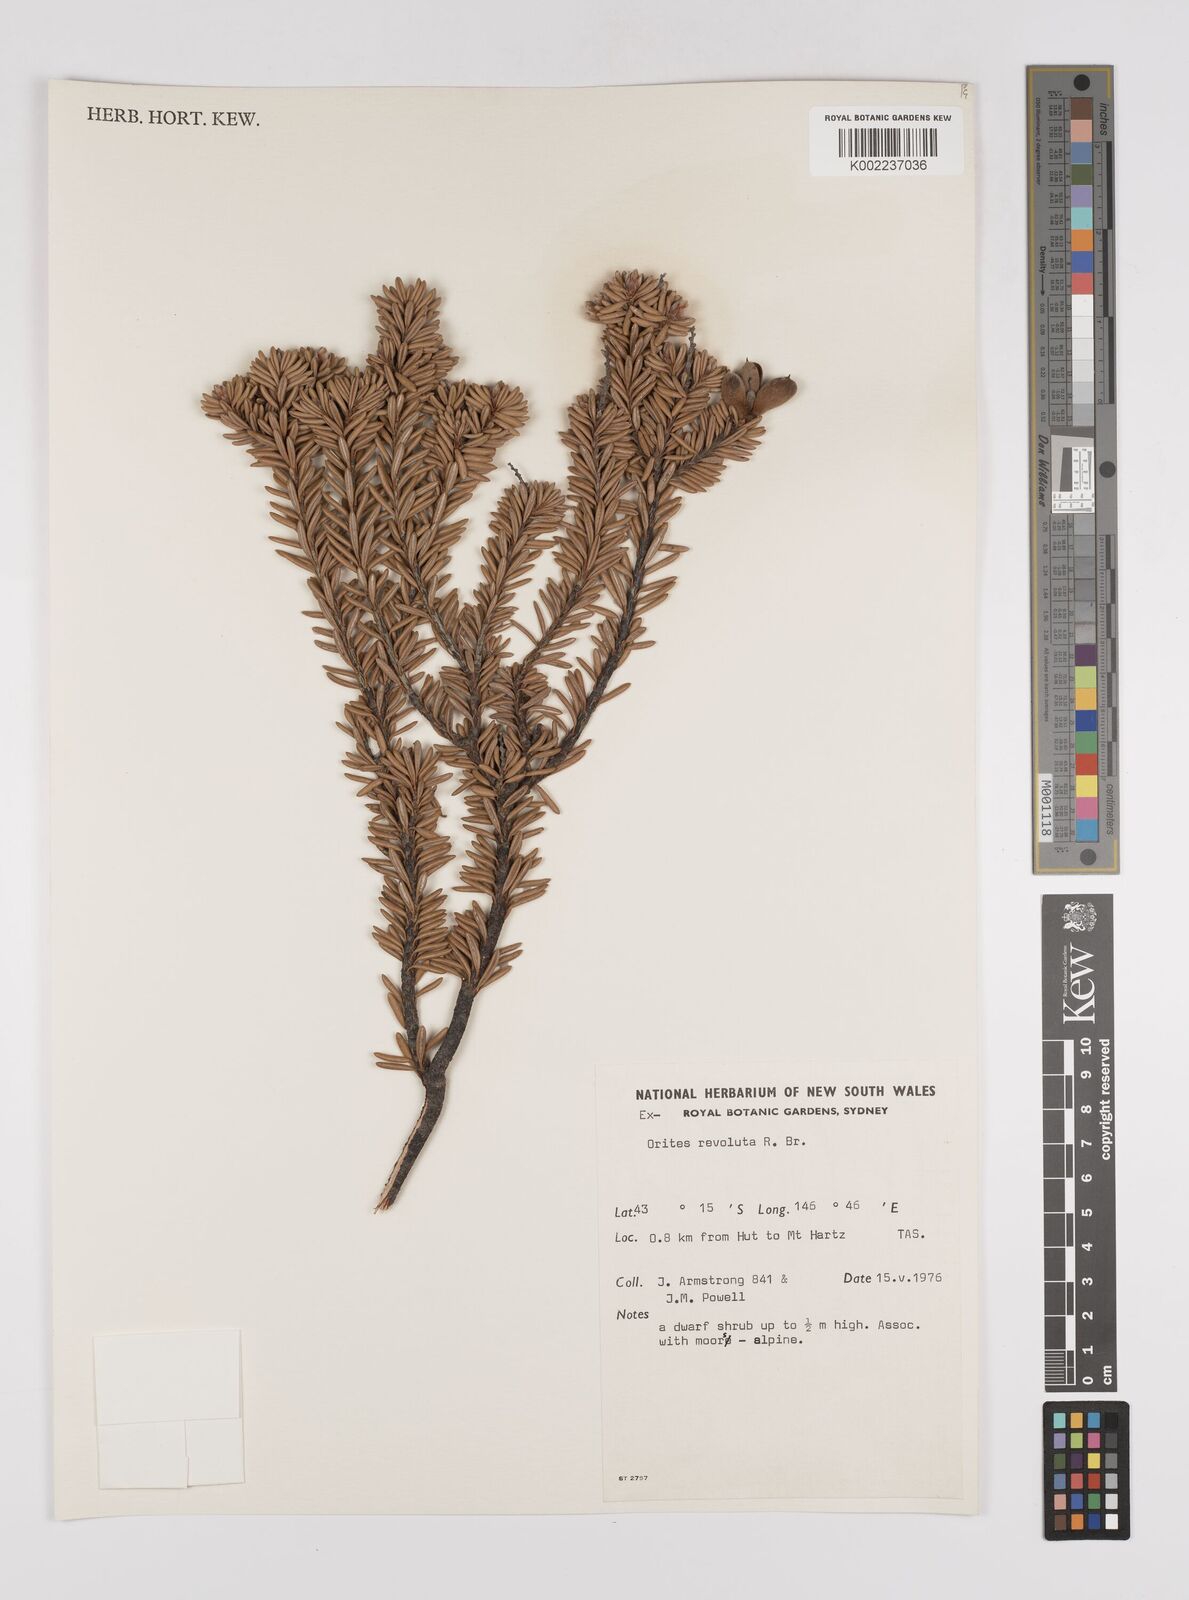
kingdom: Plantae
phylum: Tracheophyta
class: Magnoliopsida
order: Proteales
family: Proteaceae
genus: Orites
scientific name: Orites revolutus
